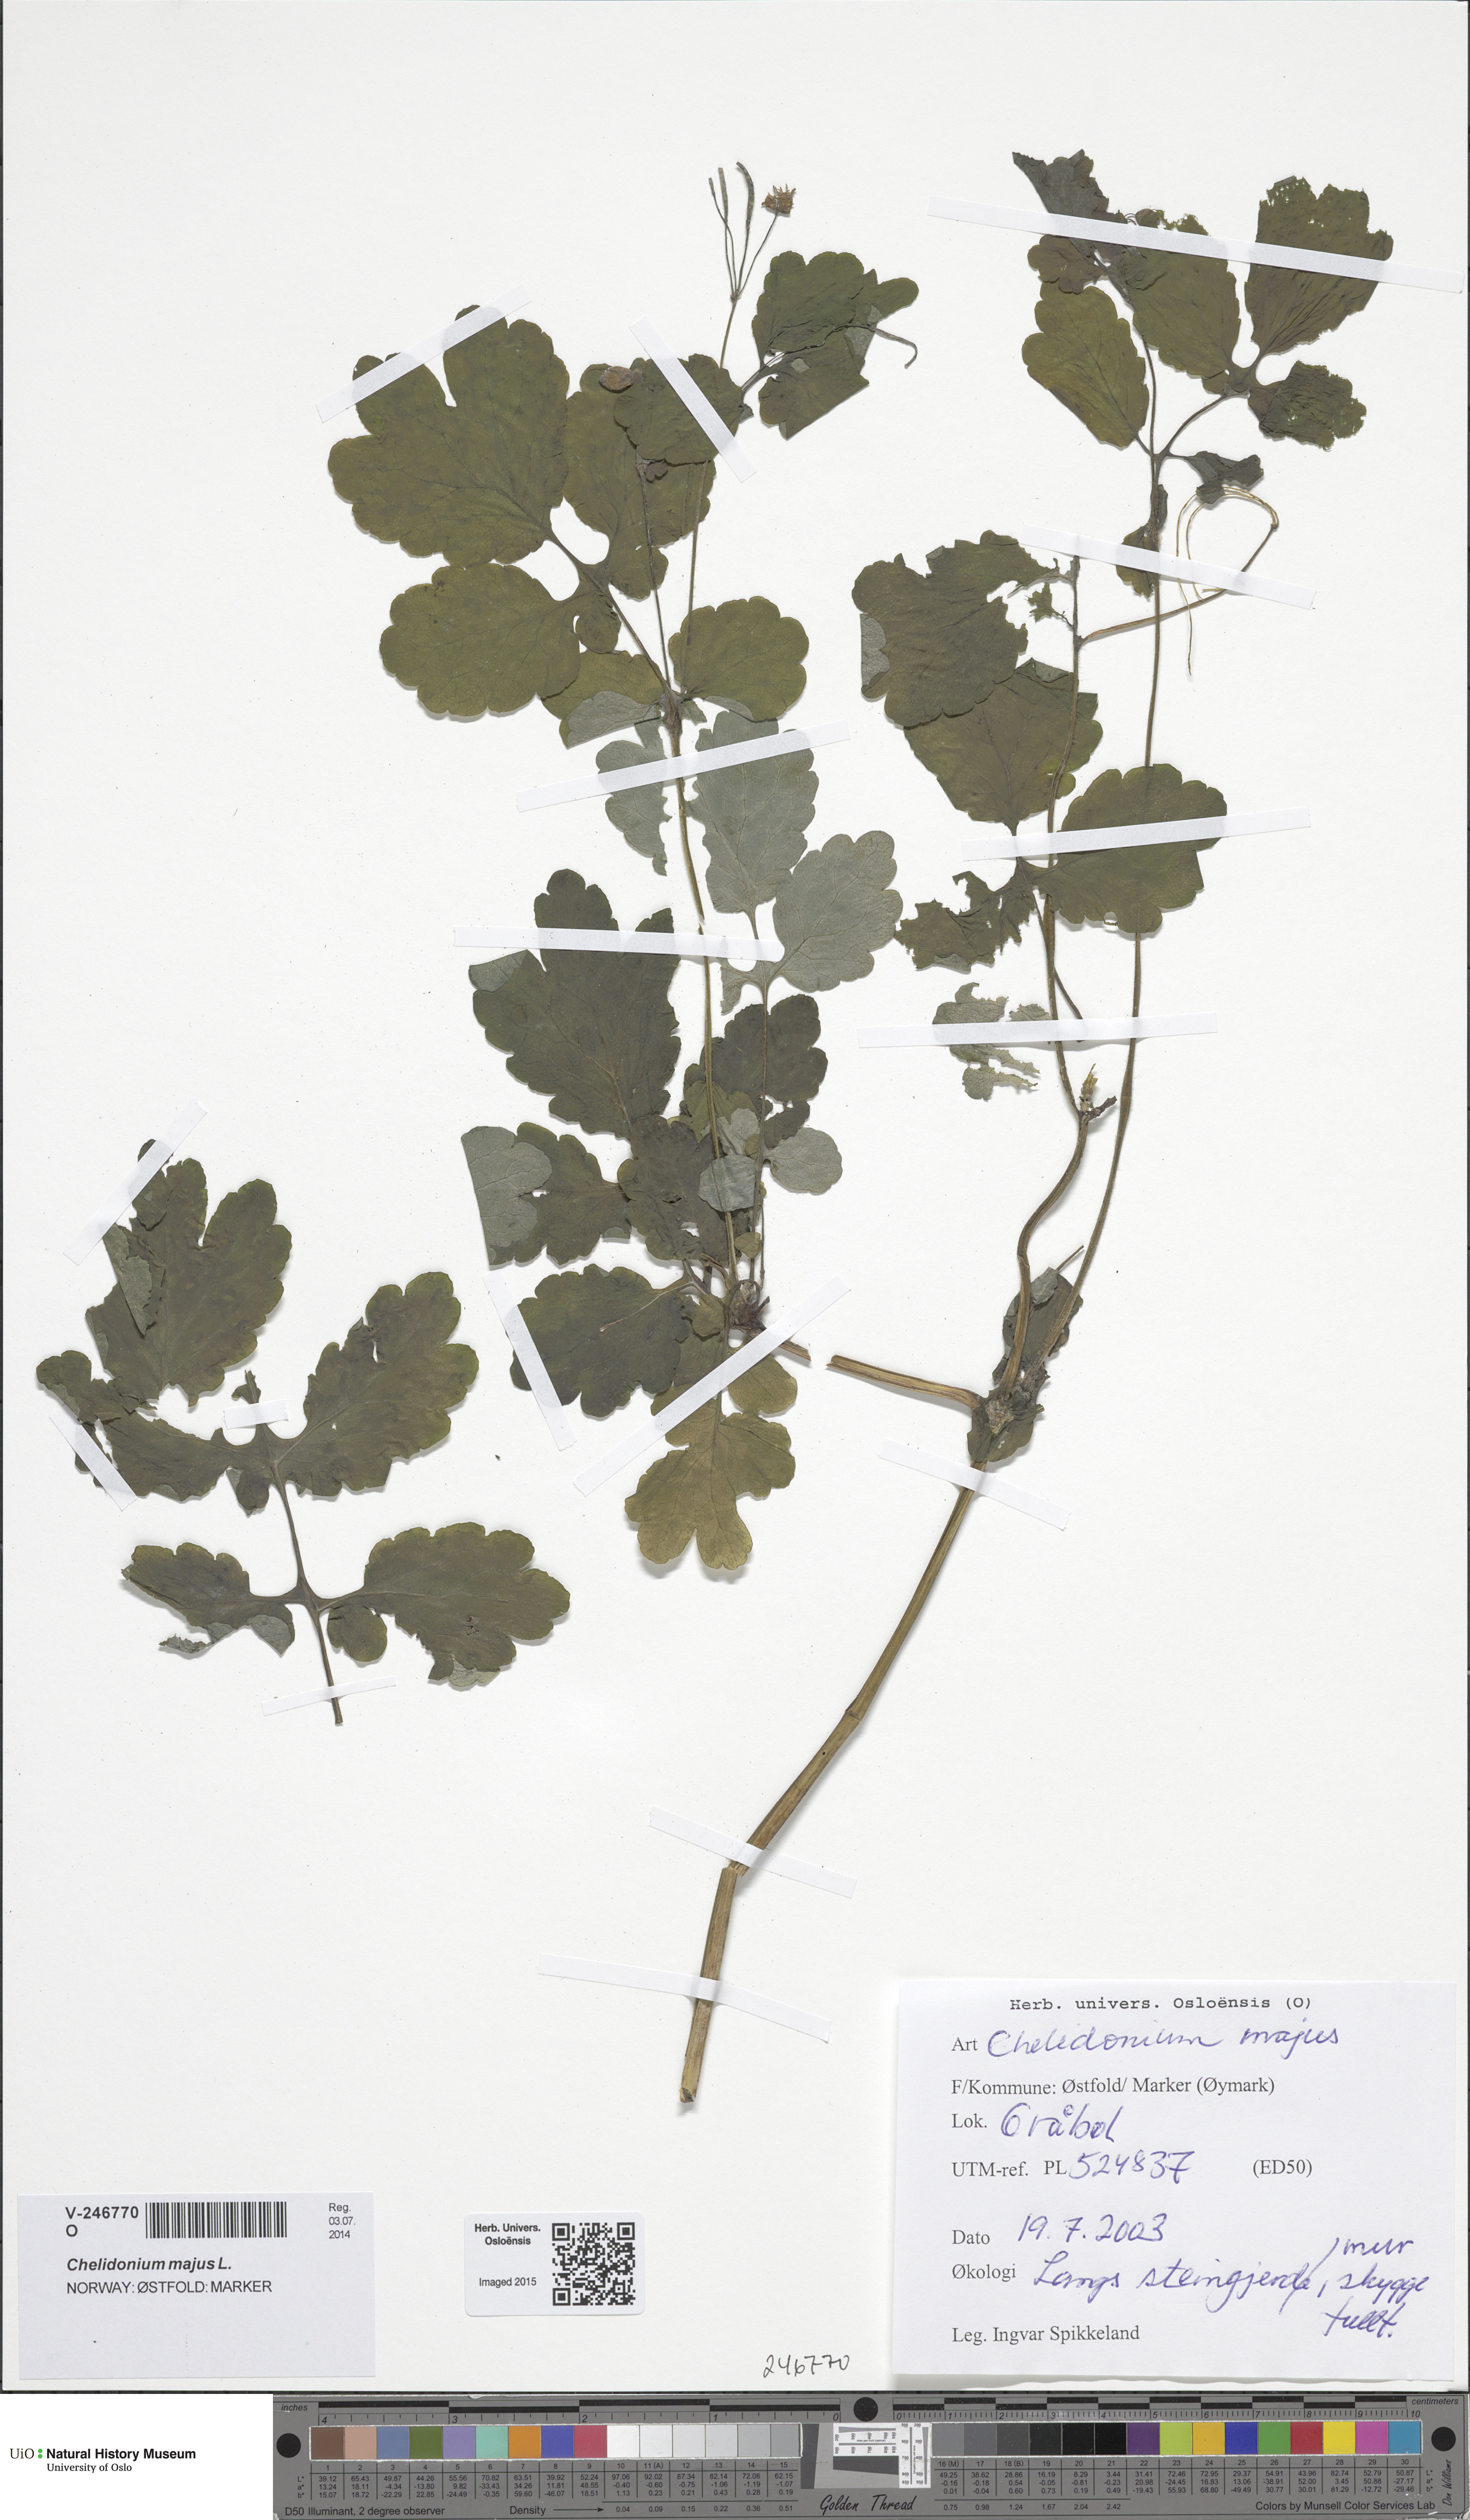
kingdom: Plantae
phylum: Tracheophyta
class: Magnoliopsida
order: Ranunculales
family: Papaveraceae
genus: Chelidonium
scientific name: Chelidonium majus
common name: Greater celandine
